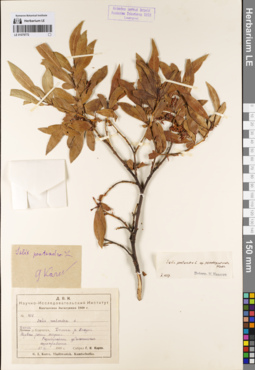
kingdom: Plantae
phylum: Tracheophyta
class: Magnoliopsida
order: Malpighiales
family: Salicaceae
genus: Salix
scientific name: Salix pseudopentandra
